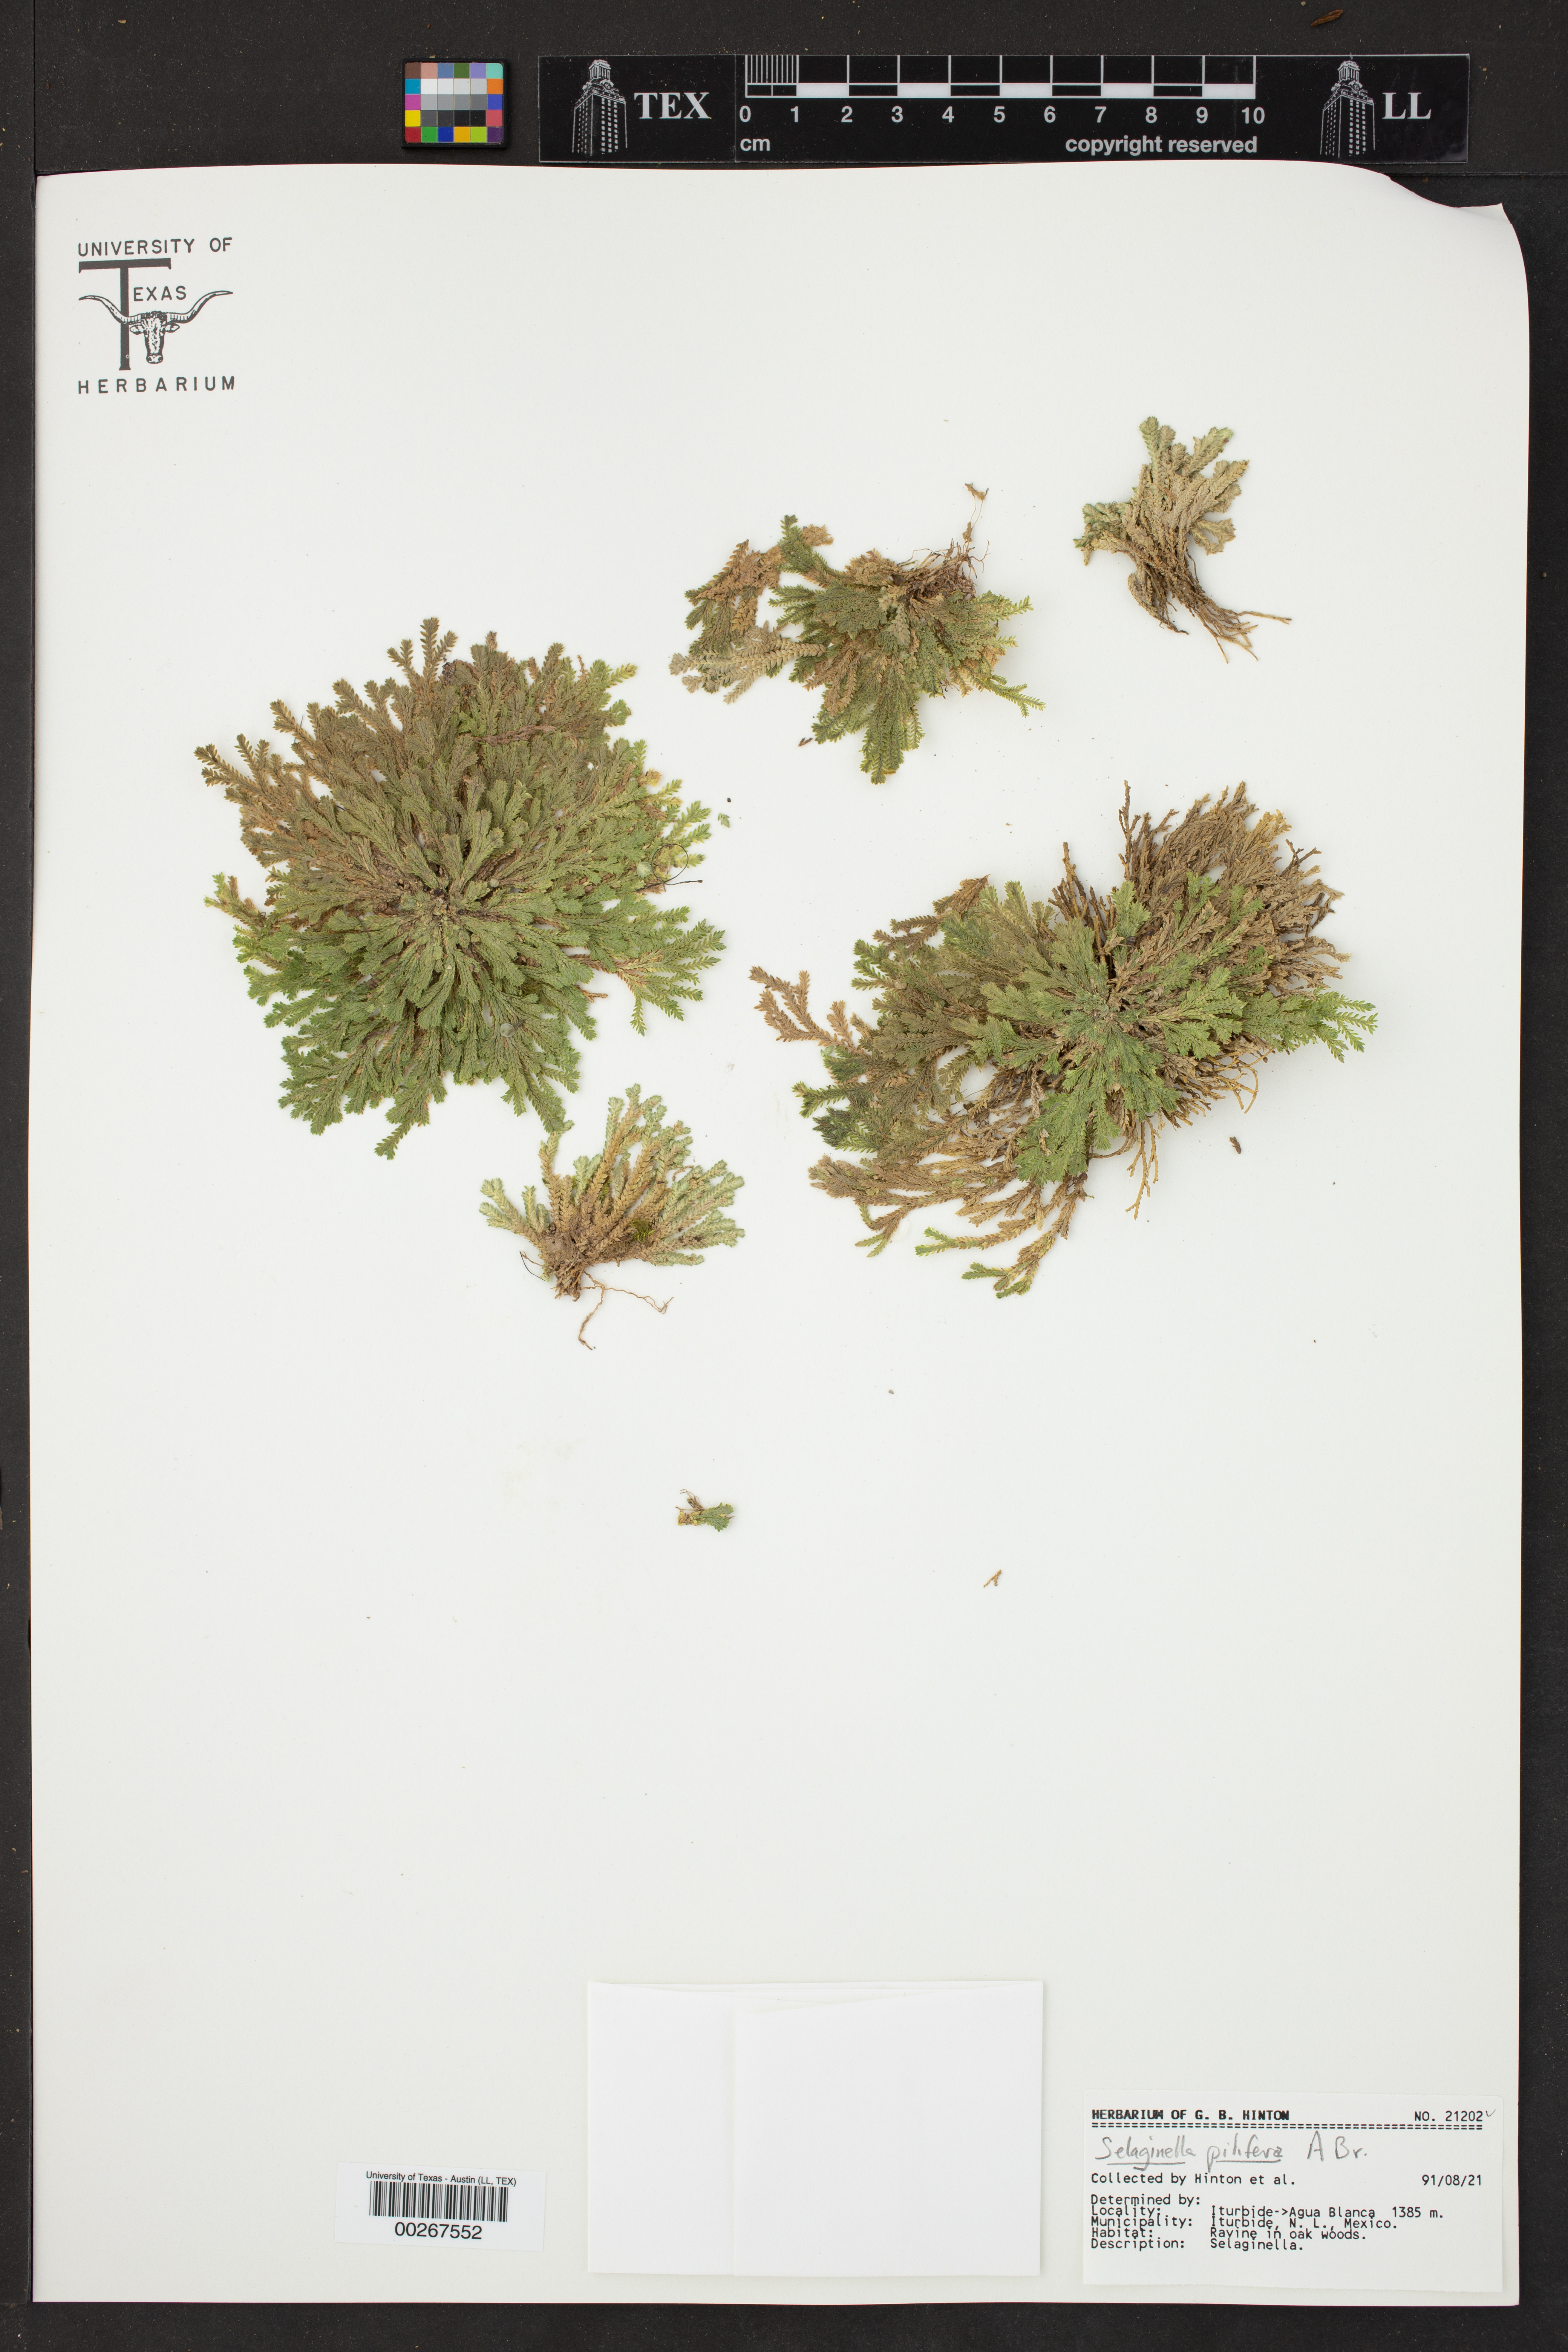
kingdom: Plantae
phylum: Tracheophyta
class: Lycopodiopsida
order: Selaginellales
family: Selaginellaceae
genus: Selaginella
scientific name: Selaginella pilifera
